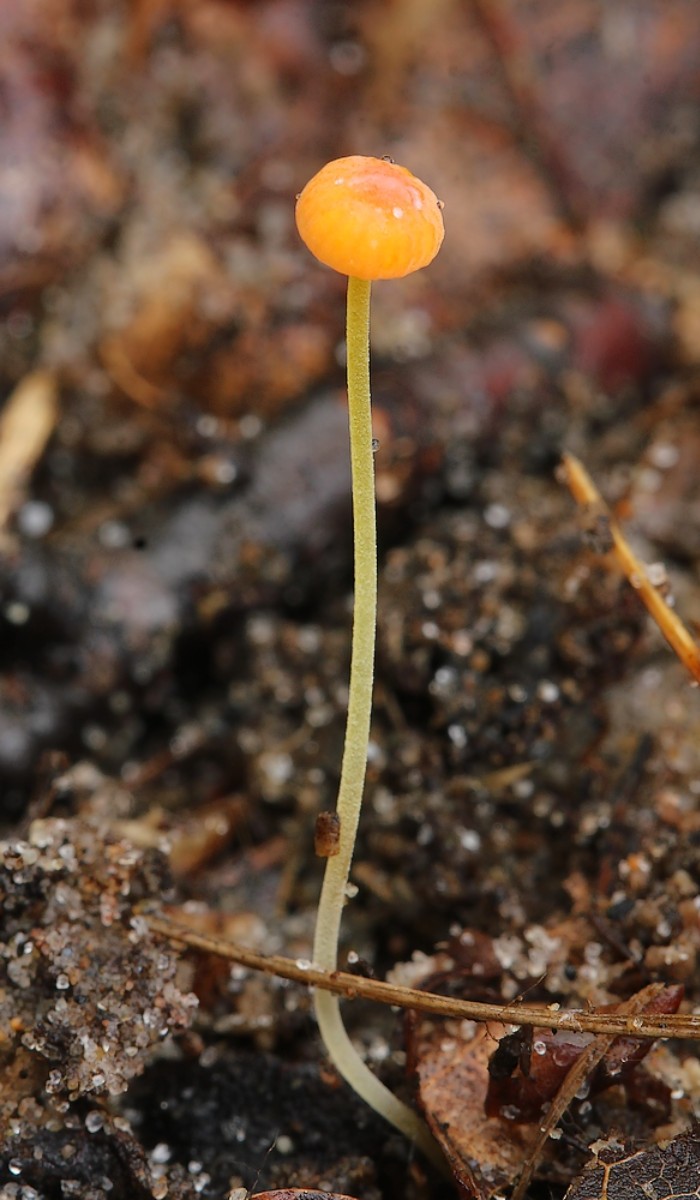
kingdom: Fungi
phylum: Basidiomycota
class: Agaricomycetes
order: Agaricales
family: Mycenaceae
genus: Mycena
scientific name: Mycena acicula
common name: orange huesvamp
